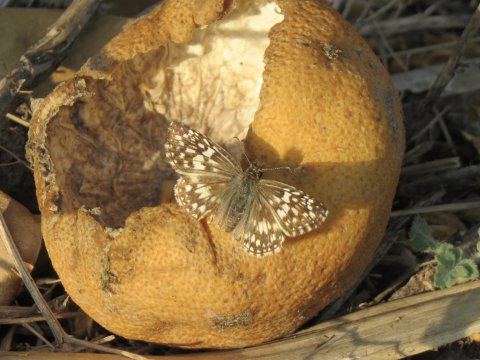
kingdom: Animalia
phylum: Arthropoda
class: Insecta
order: Lepidoptera
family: Hesperiidae
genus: Pyrgus
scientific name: Pyrgus oileus
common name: Tropical Checkered-Skipper
